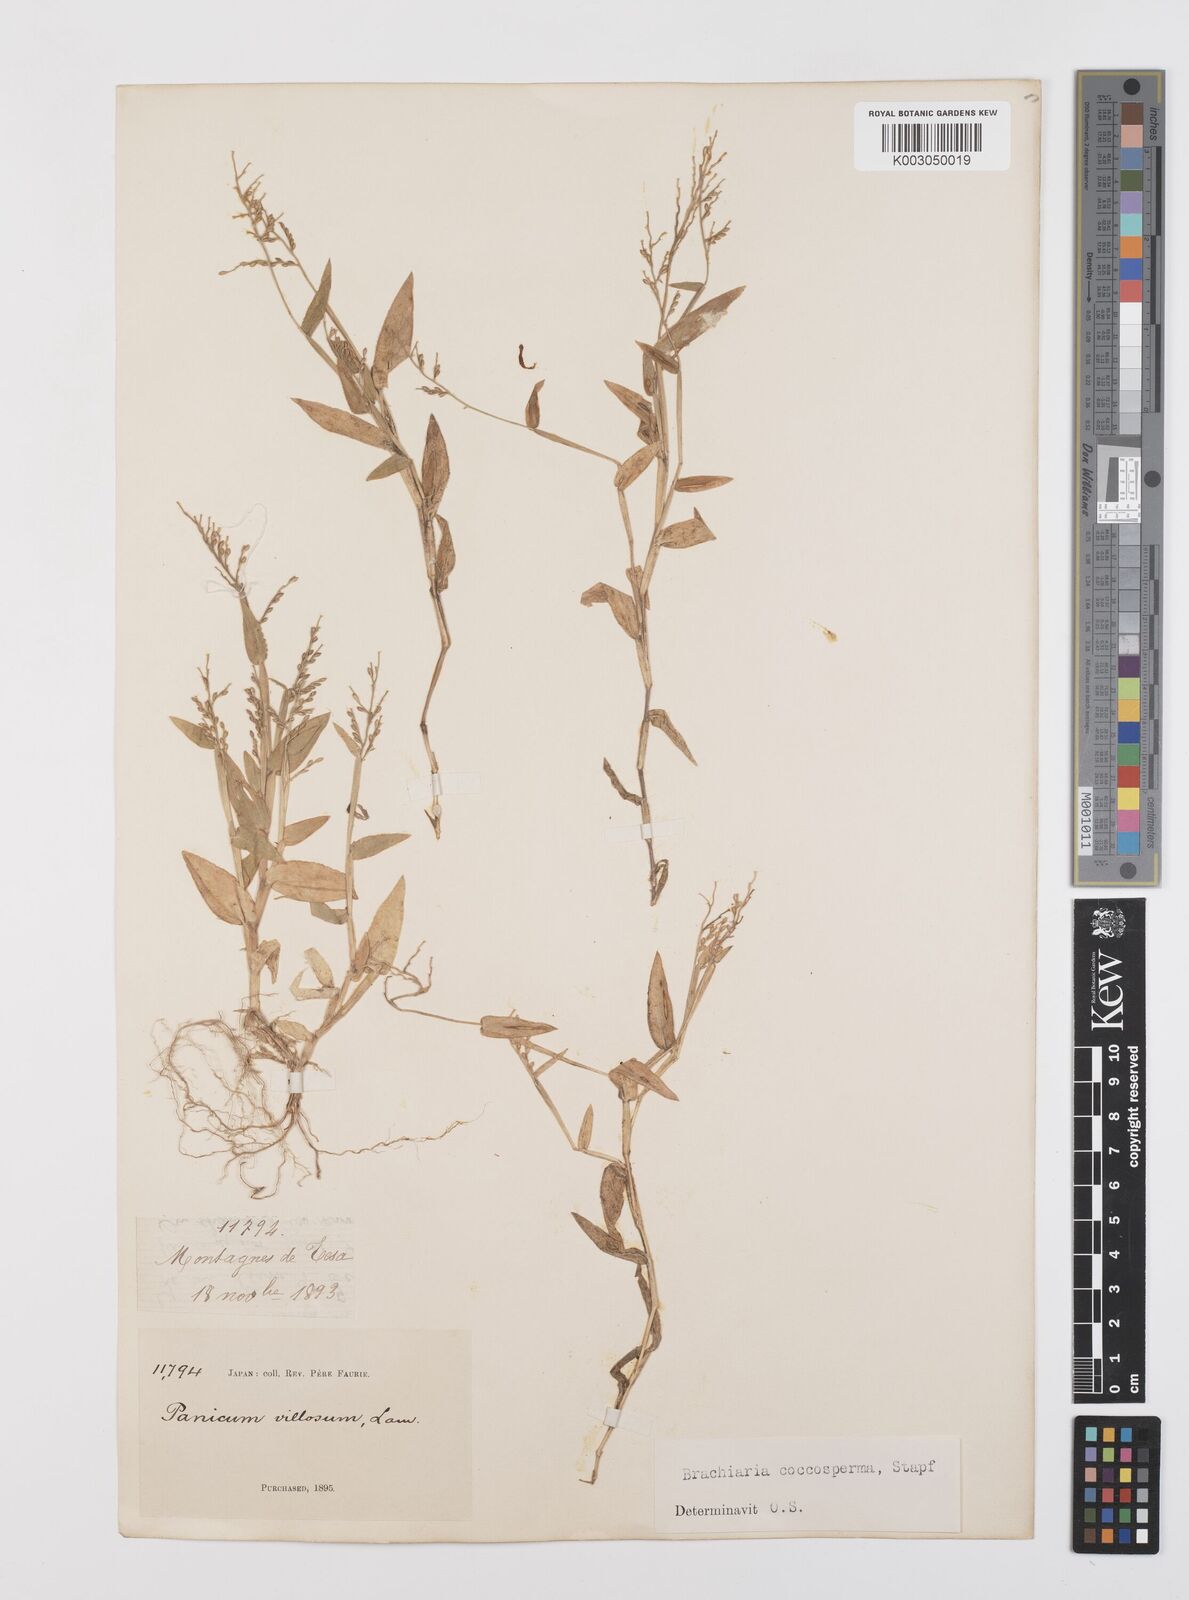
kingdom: Plantae
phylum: Tracheophyta
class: Liliopsida
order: Poales
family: Poaceae
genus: Urochloa
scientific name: Urochloa villosa
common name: Hairy signalgrass
